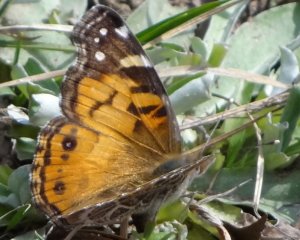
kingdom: Animalia
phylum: Arthropoda
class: Insecta
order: Lepidoptera
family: Nymphalidae
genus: Vanessa
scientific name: Vanessa virginiensis
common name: American Lady
